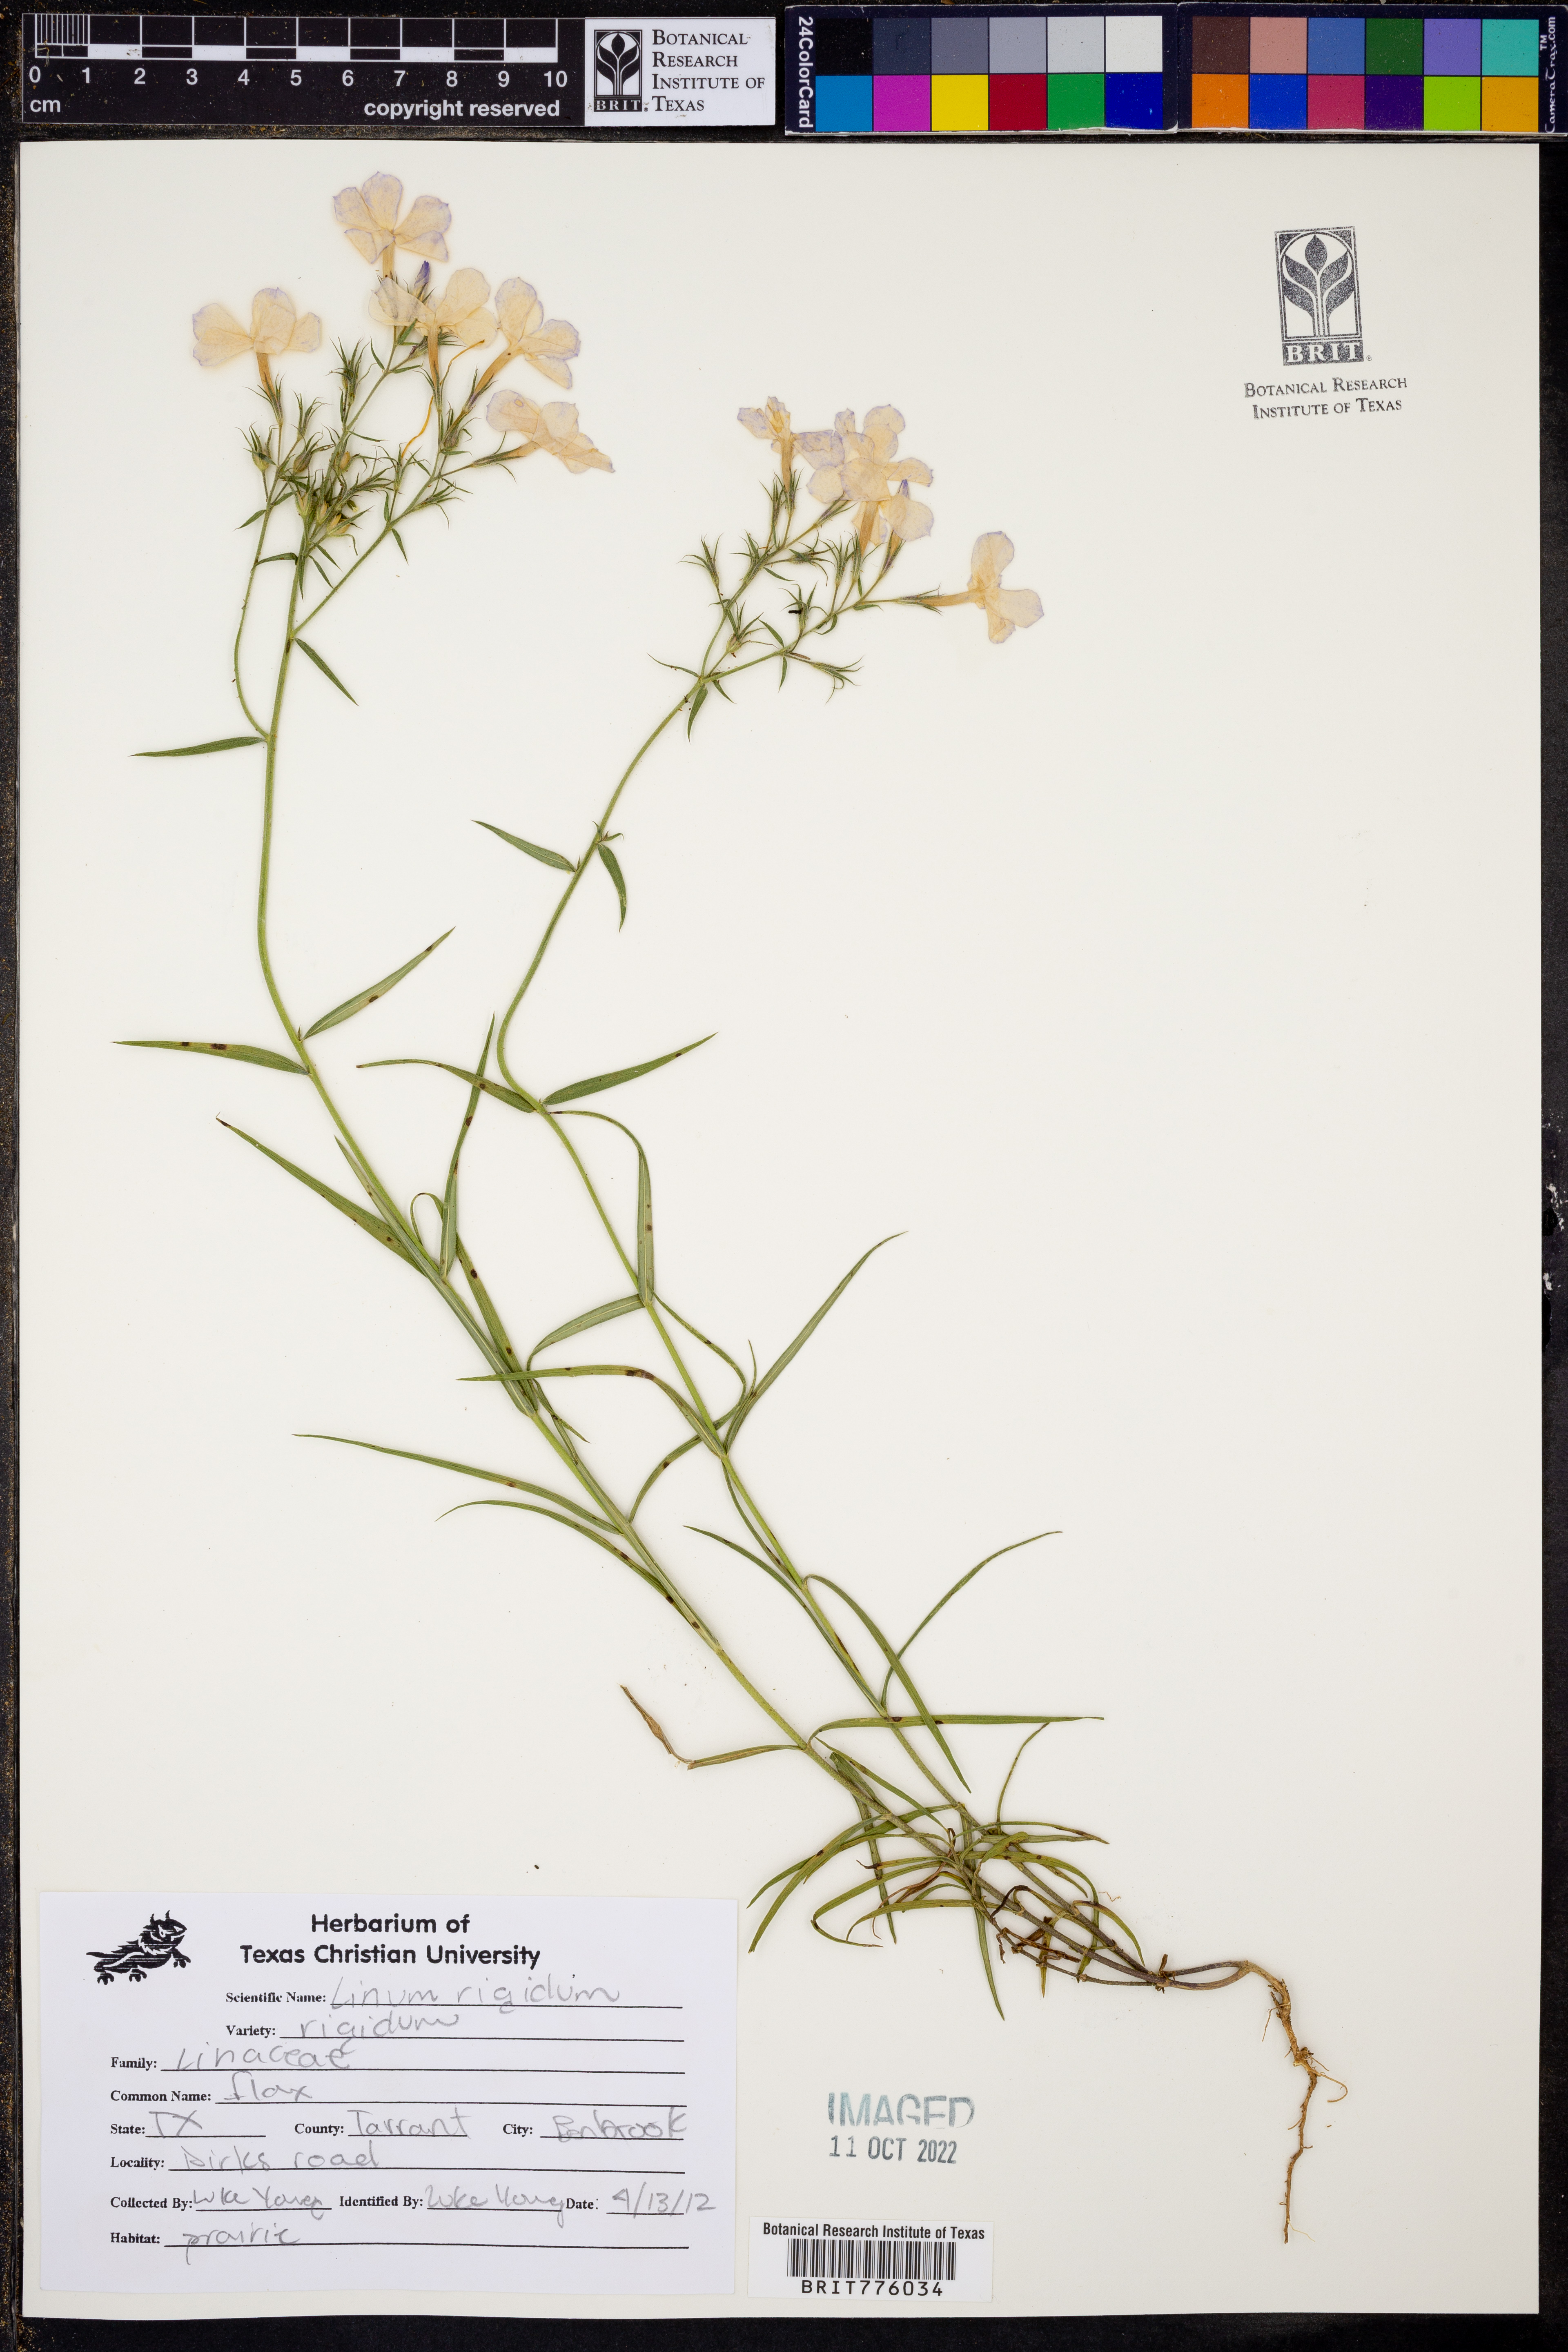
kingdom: Plantae
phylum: Tracheophyta
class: Magnoliopsida
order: Malpighiales
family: Linaceae
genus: Linum
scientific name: Linum rigidum
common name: Stiff-stem flax
